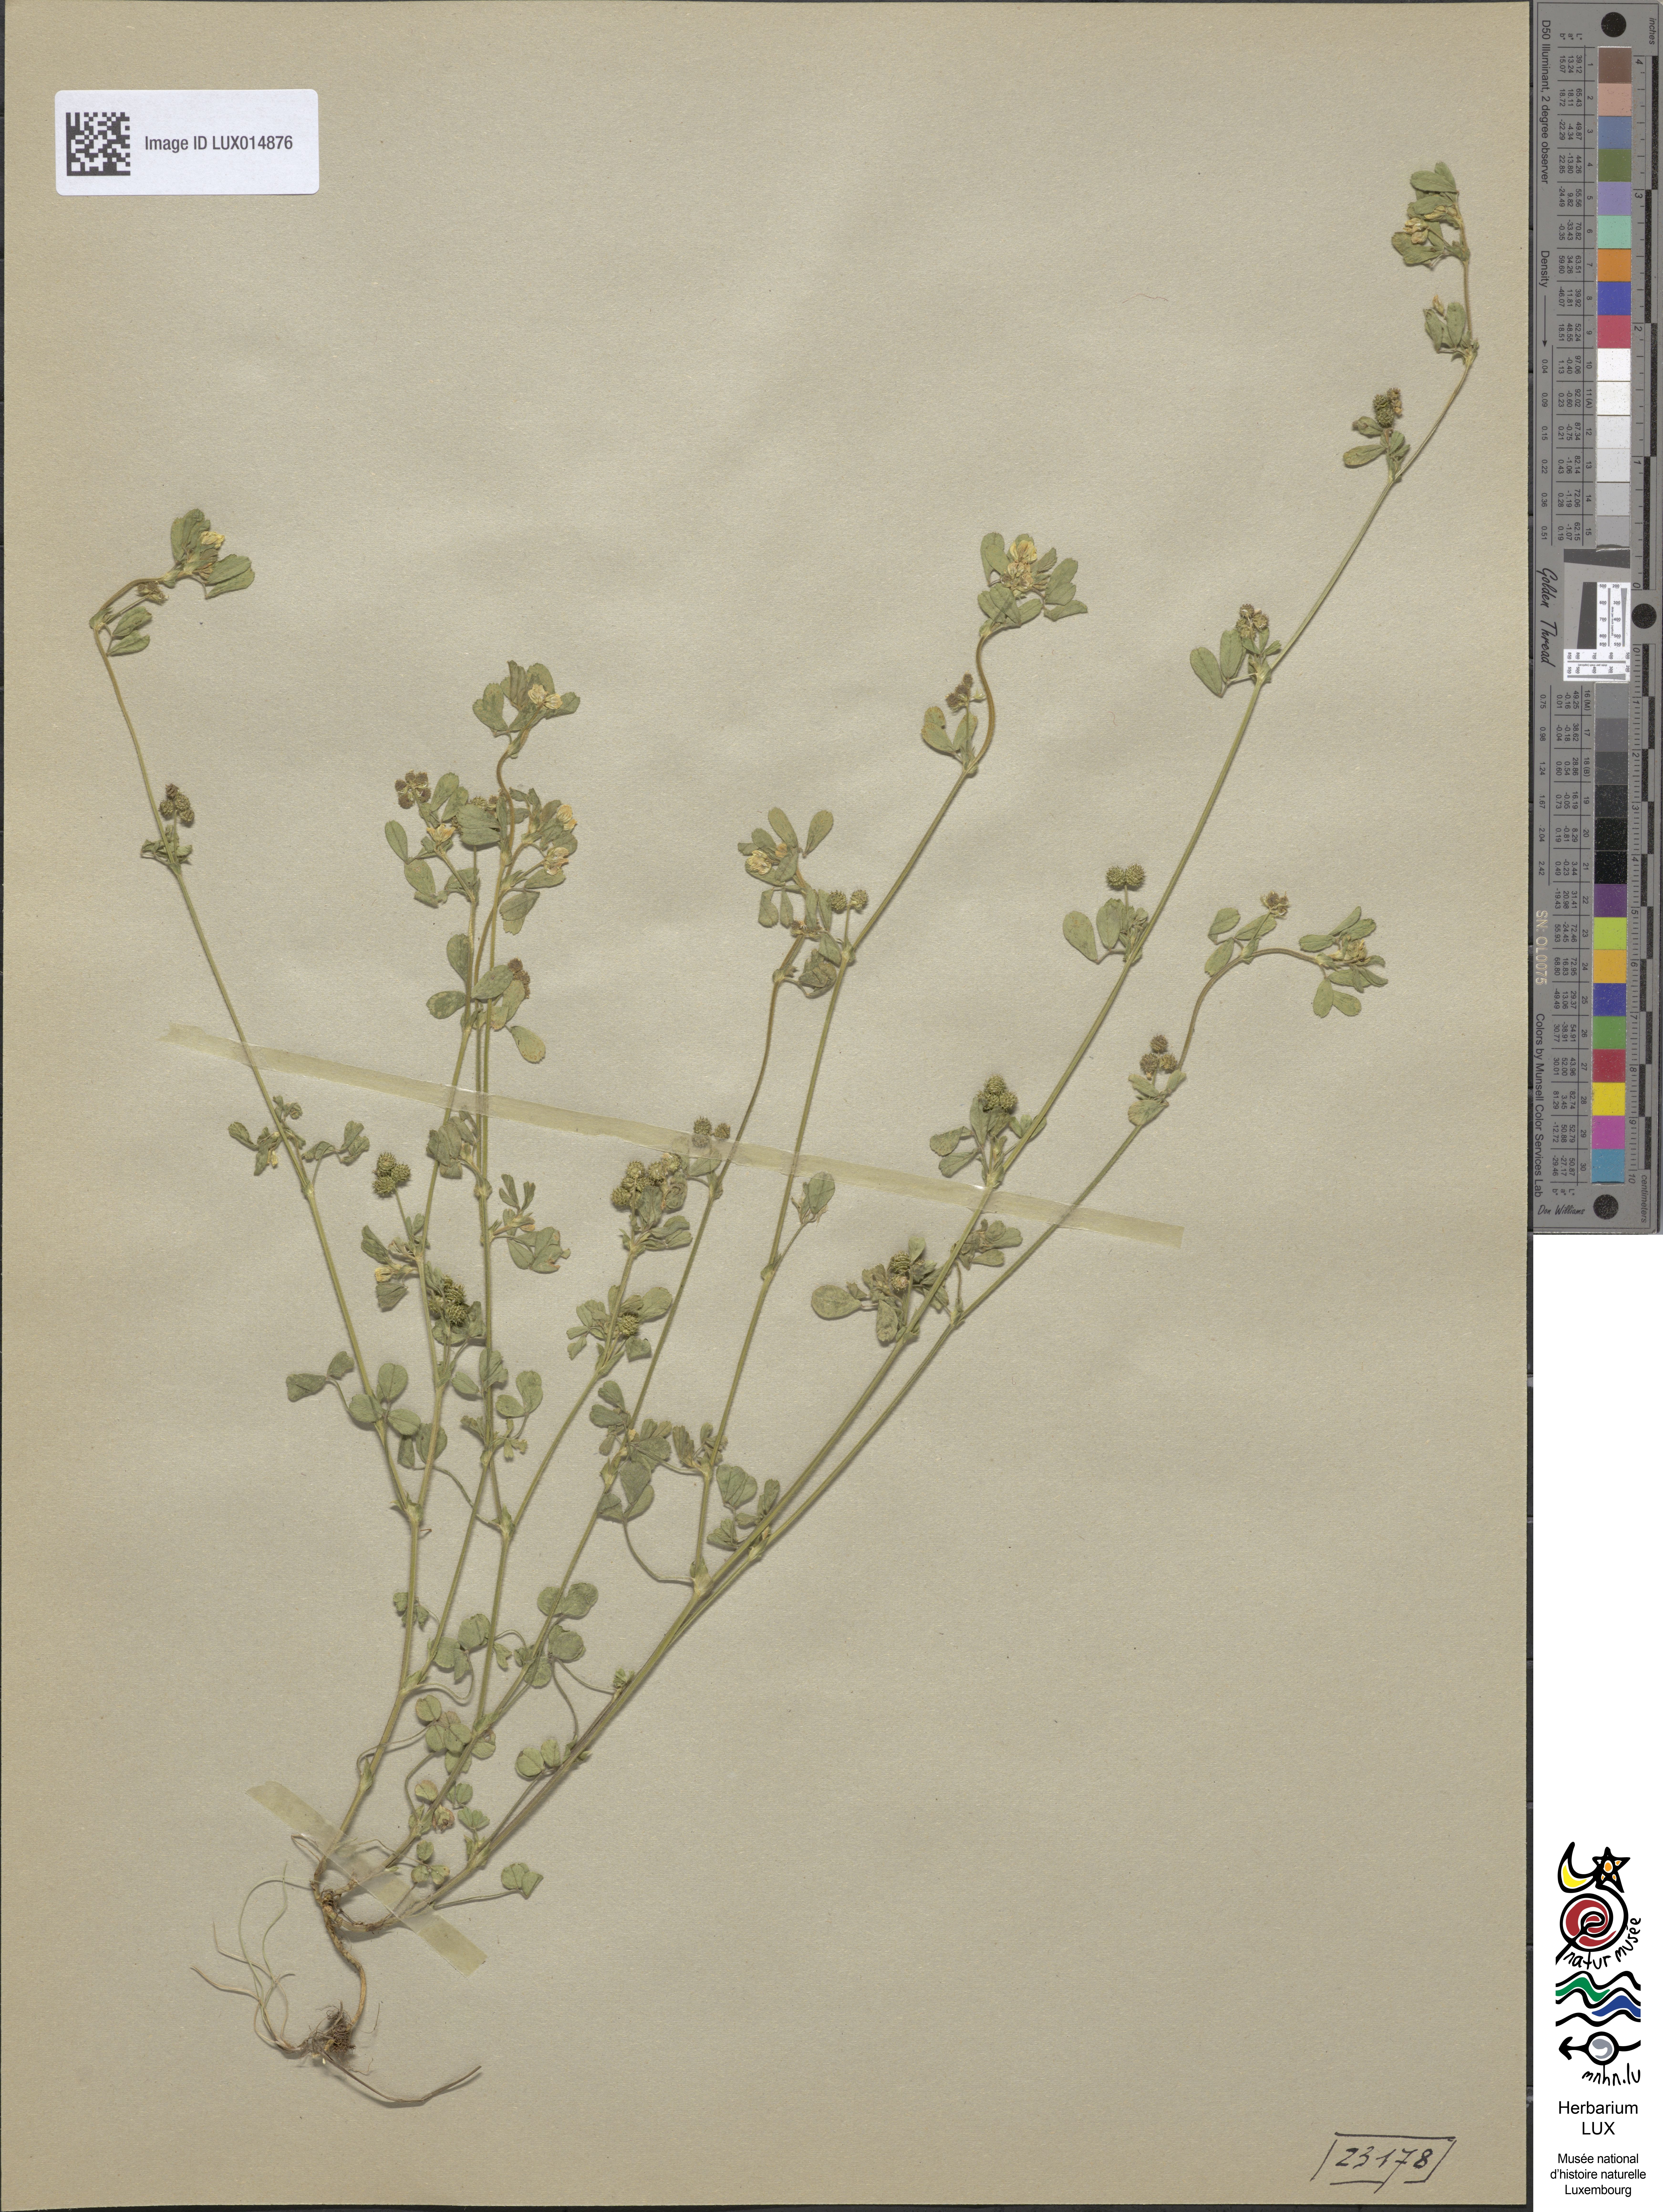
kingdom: Plantae
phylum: Tracheophyta
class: Magnoliopsida
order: Fabales
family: Fabaceae
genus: Medicago
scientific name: Medicago minima
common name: Little bur-clover
